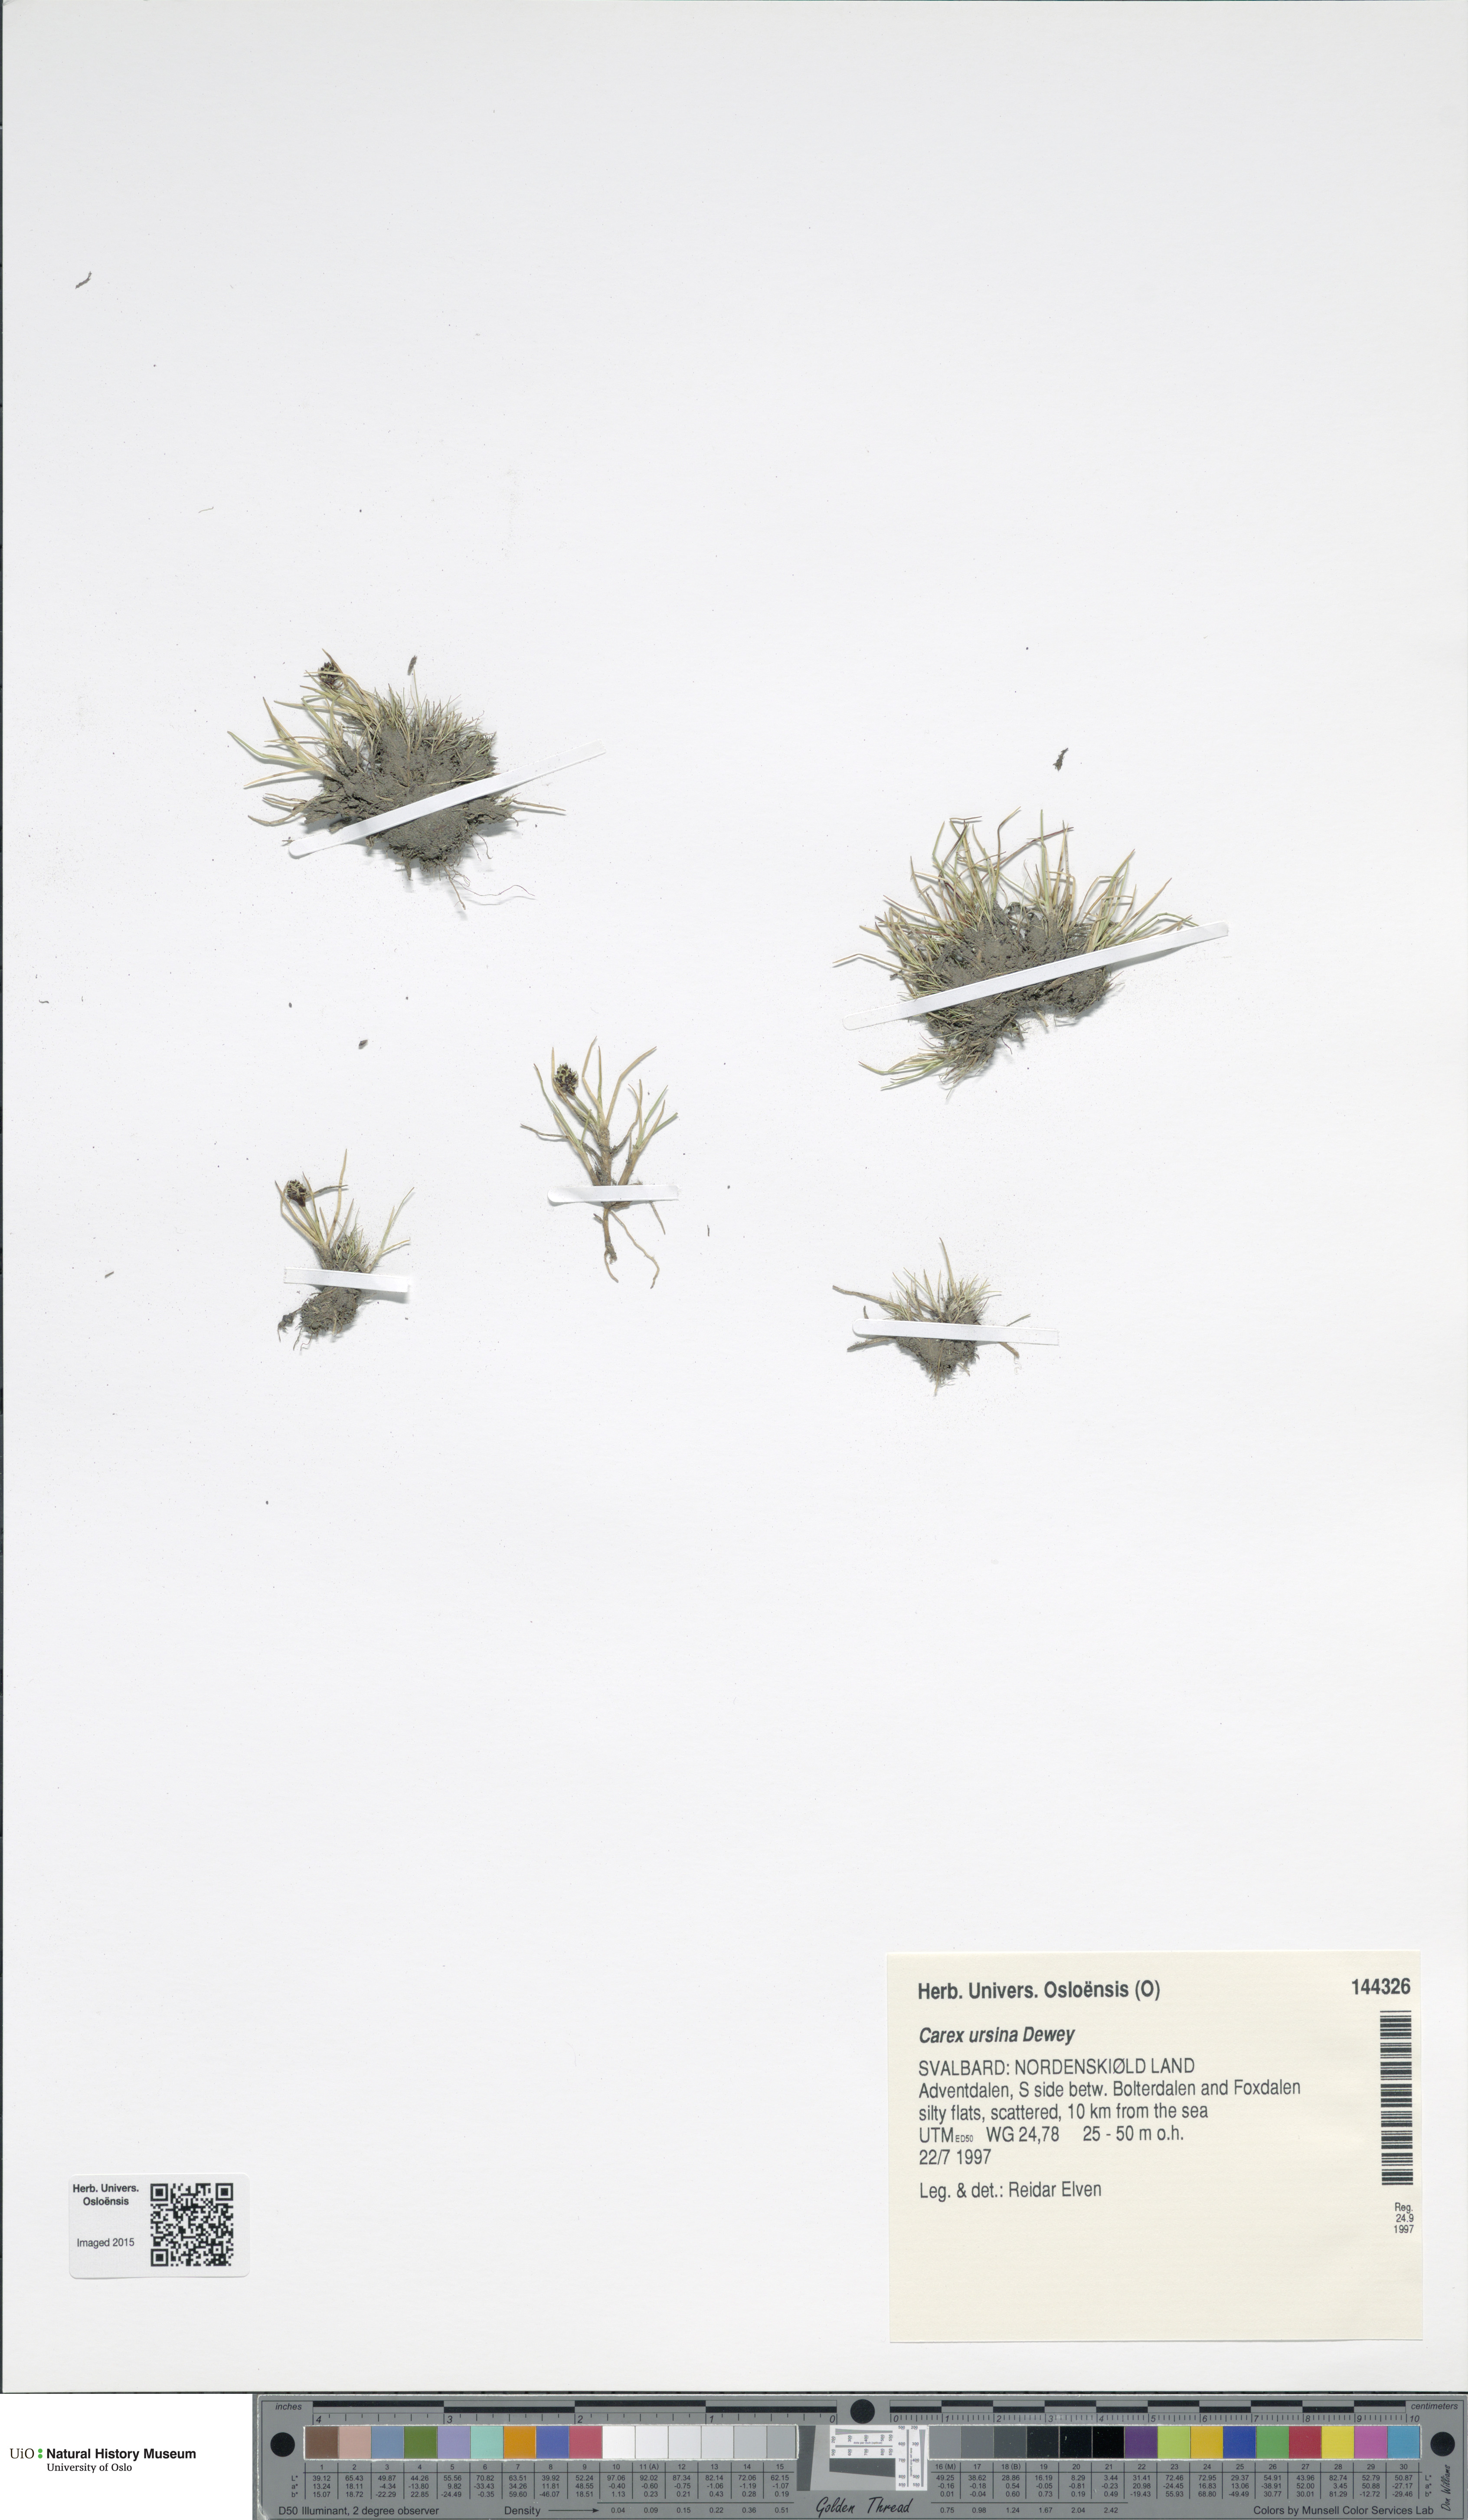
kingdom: Plantae
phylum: Tracheophyta
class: Liliopsida
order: Poales
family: Cyperaceae
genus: Carex
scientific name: Carex ursina
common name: Bear sedge
